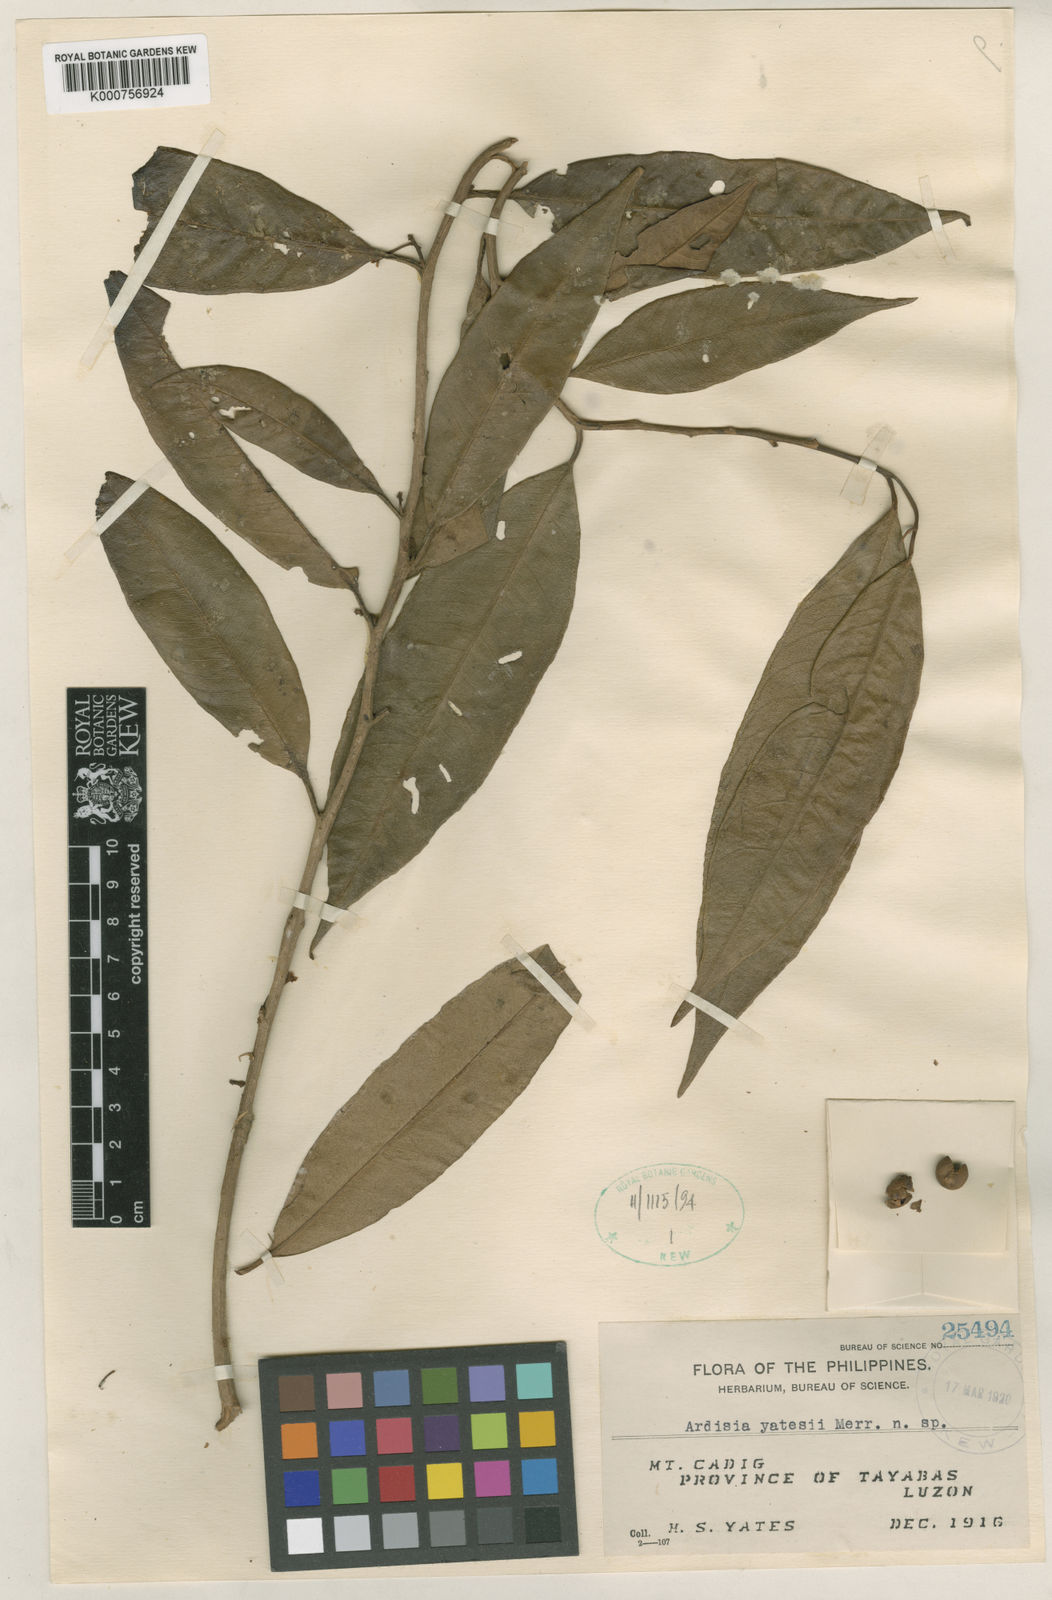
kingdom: Plantae
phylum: Tracheophyta
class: Magnoliopsida
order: Ericales
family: Primulaceae
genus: Ardisia
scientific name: Ardisia yatesii
